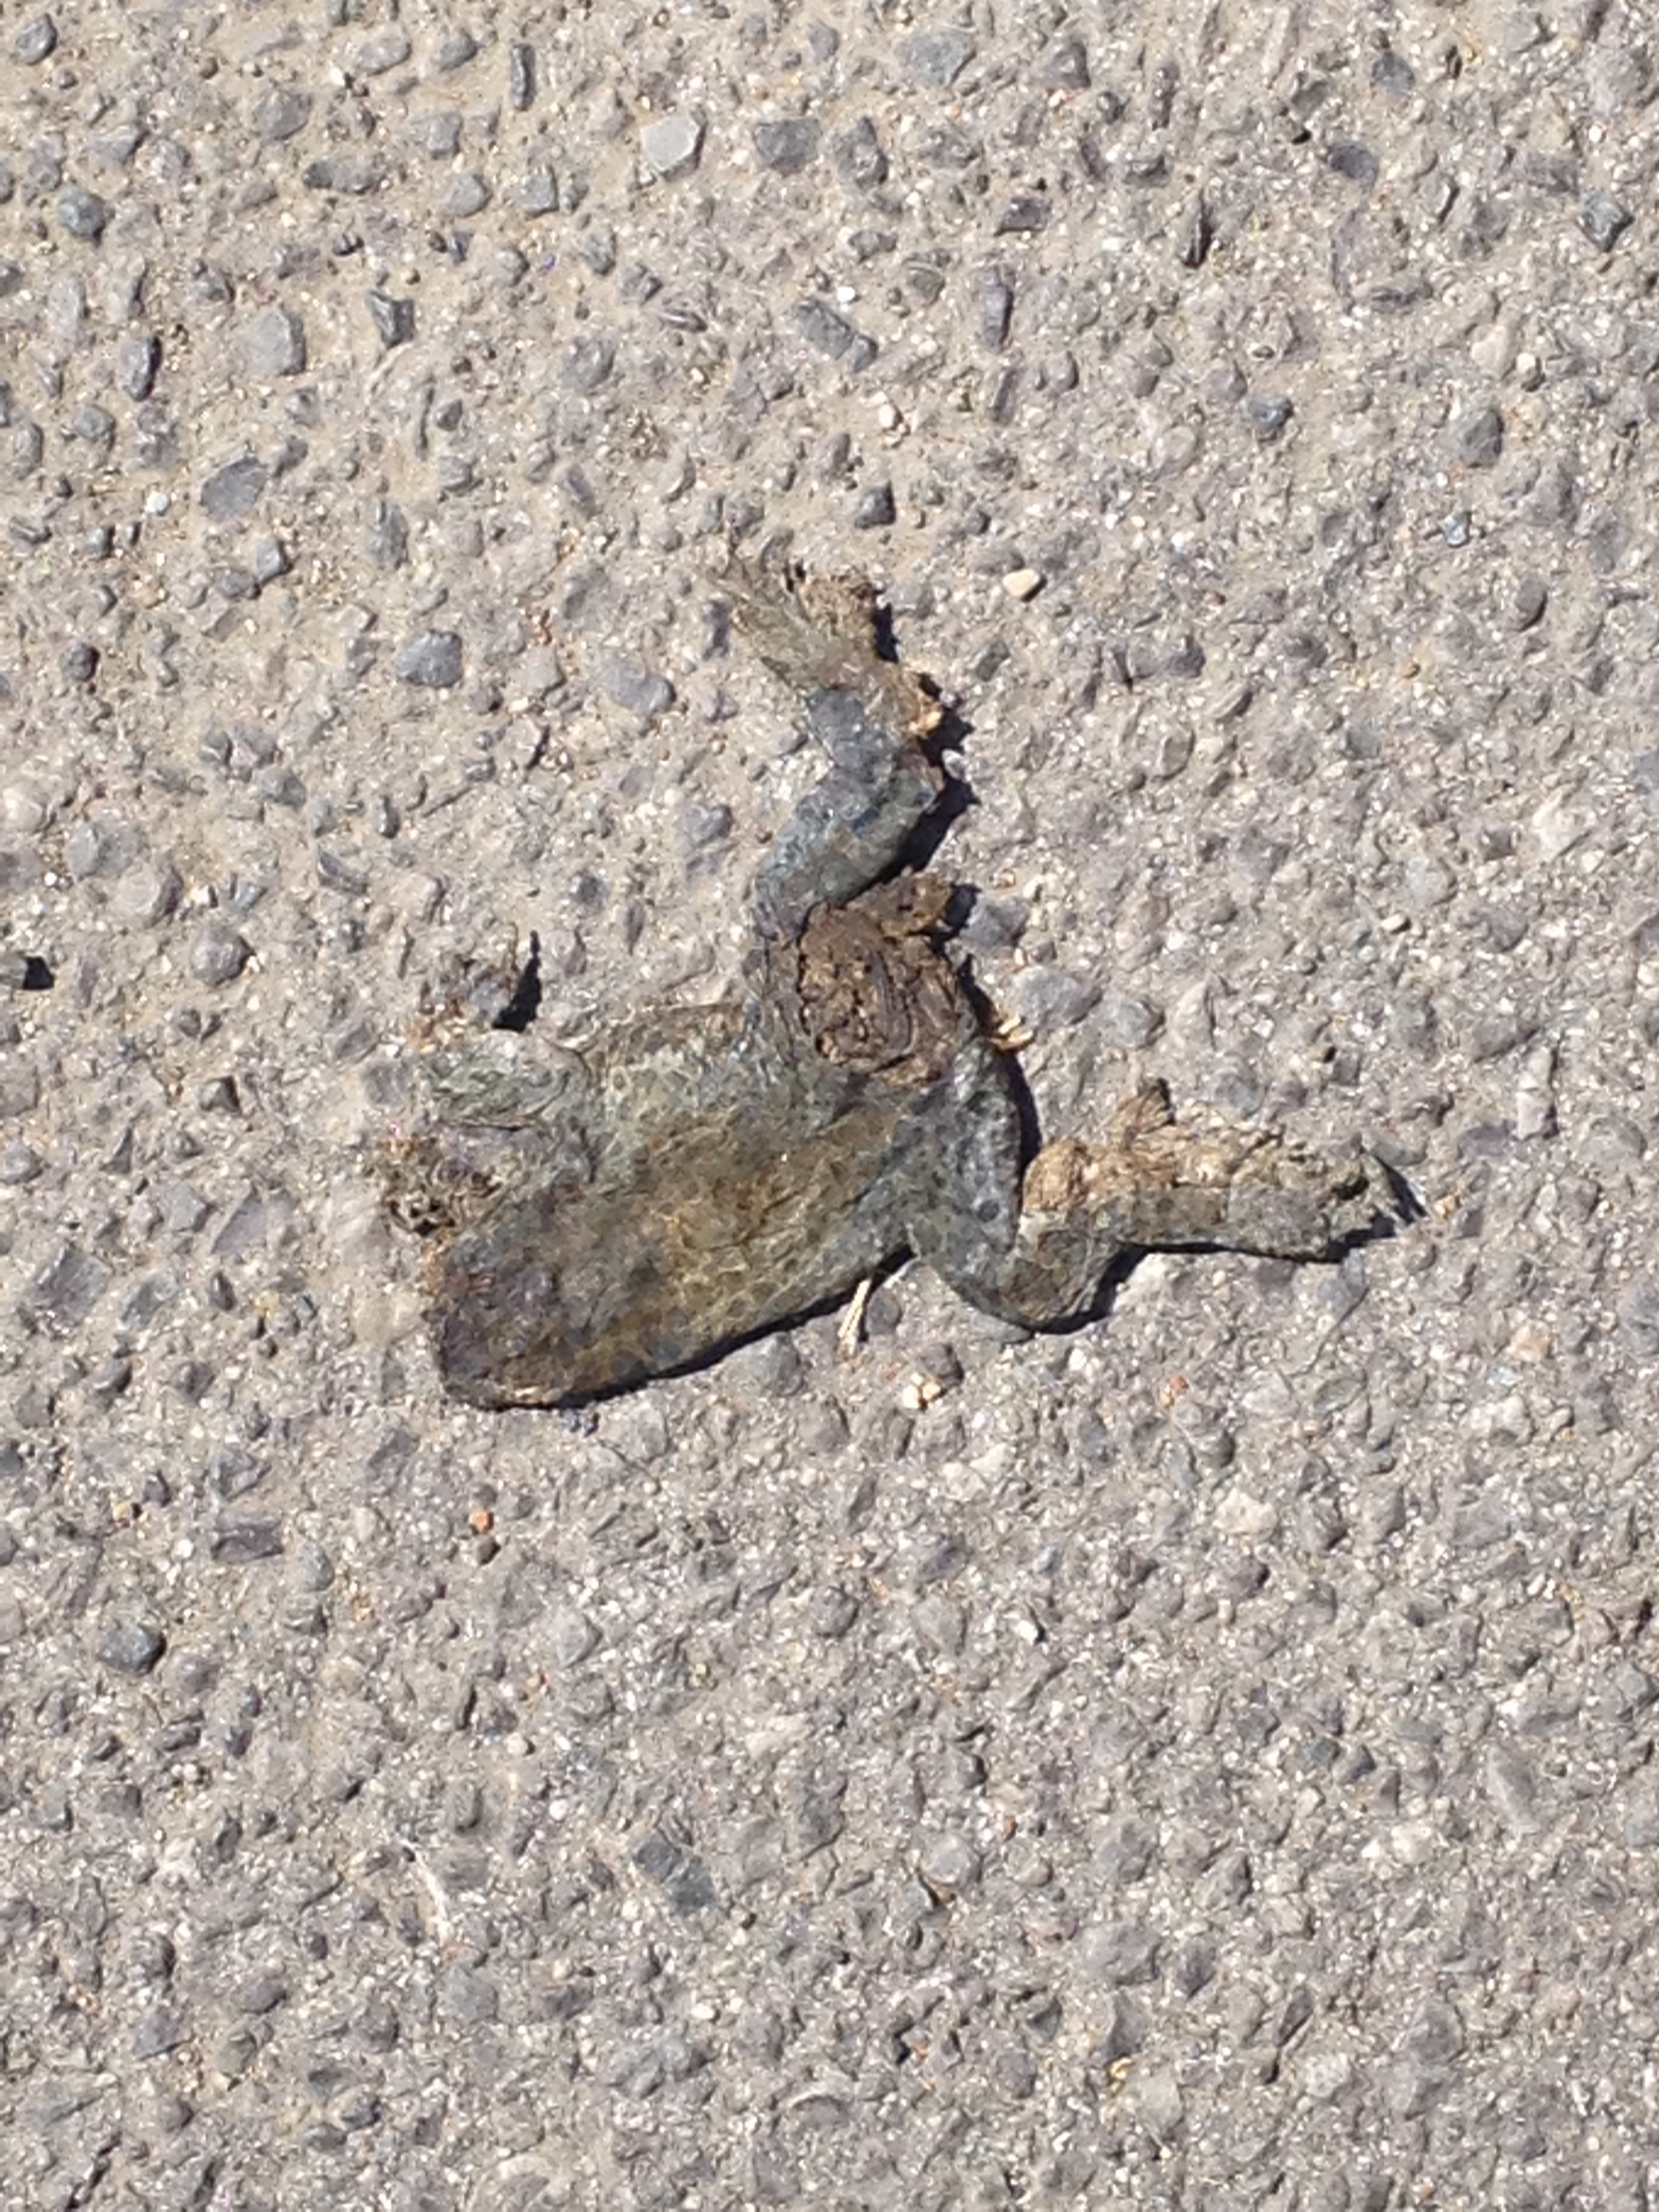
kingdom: Animalia
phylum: Chordata
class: Amphibia
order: Anura
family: Bufonidae
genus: Bufotes
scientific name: Bufotes viridis
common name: European green toad
